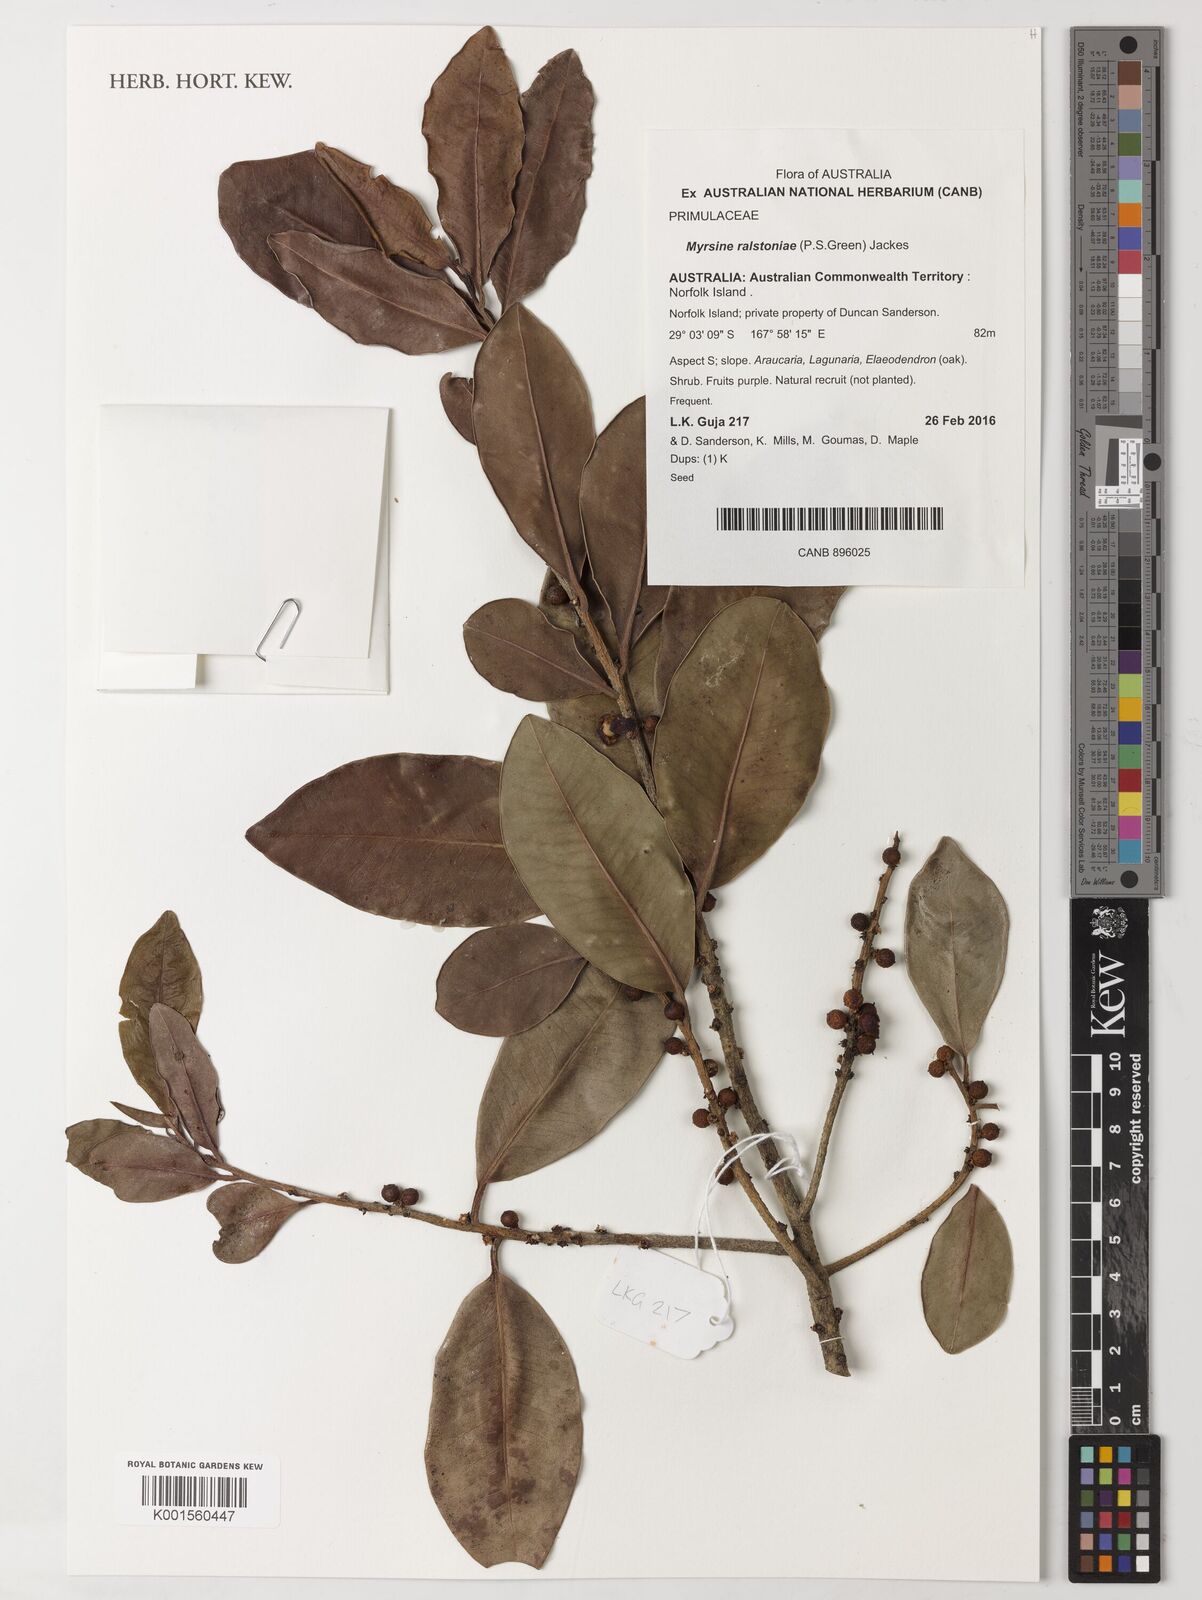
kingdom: Plantae
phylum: Tracheophyta
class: Magnoliopsida
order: Ericales
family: Primulaceae
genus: Myrsine
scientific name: Myrsine ralstoniae
